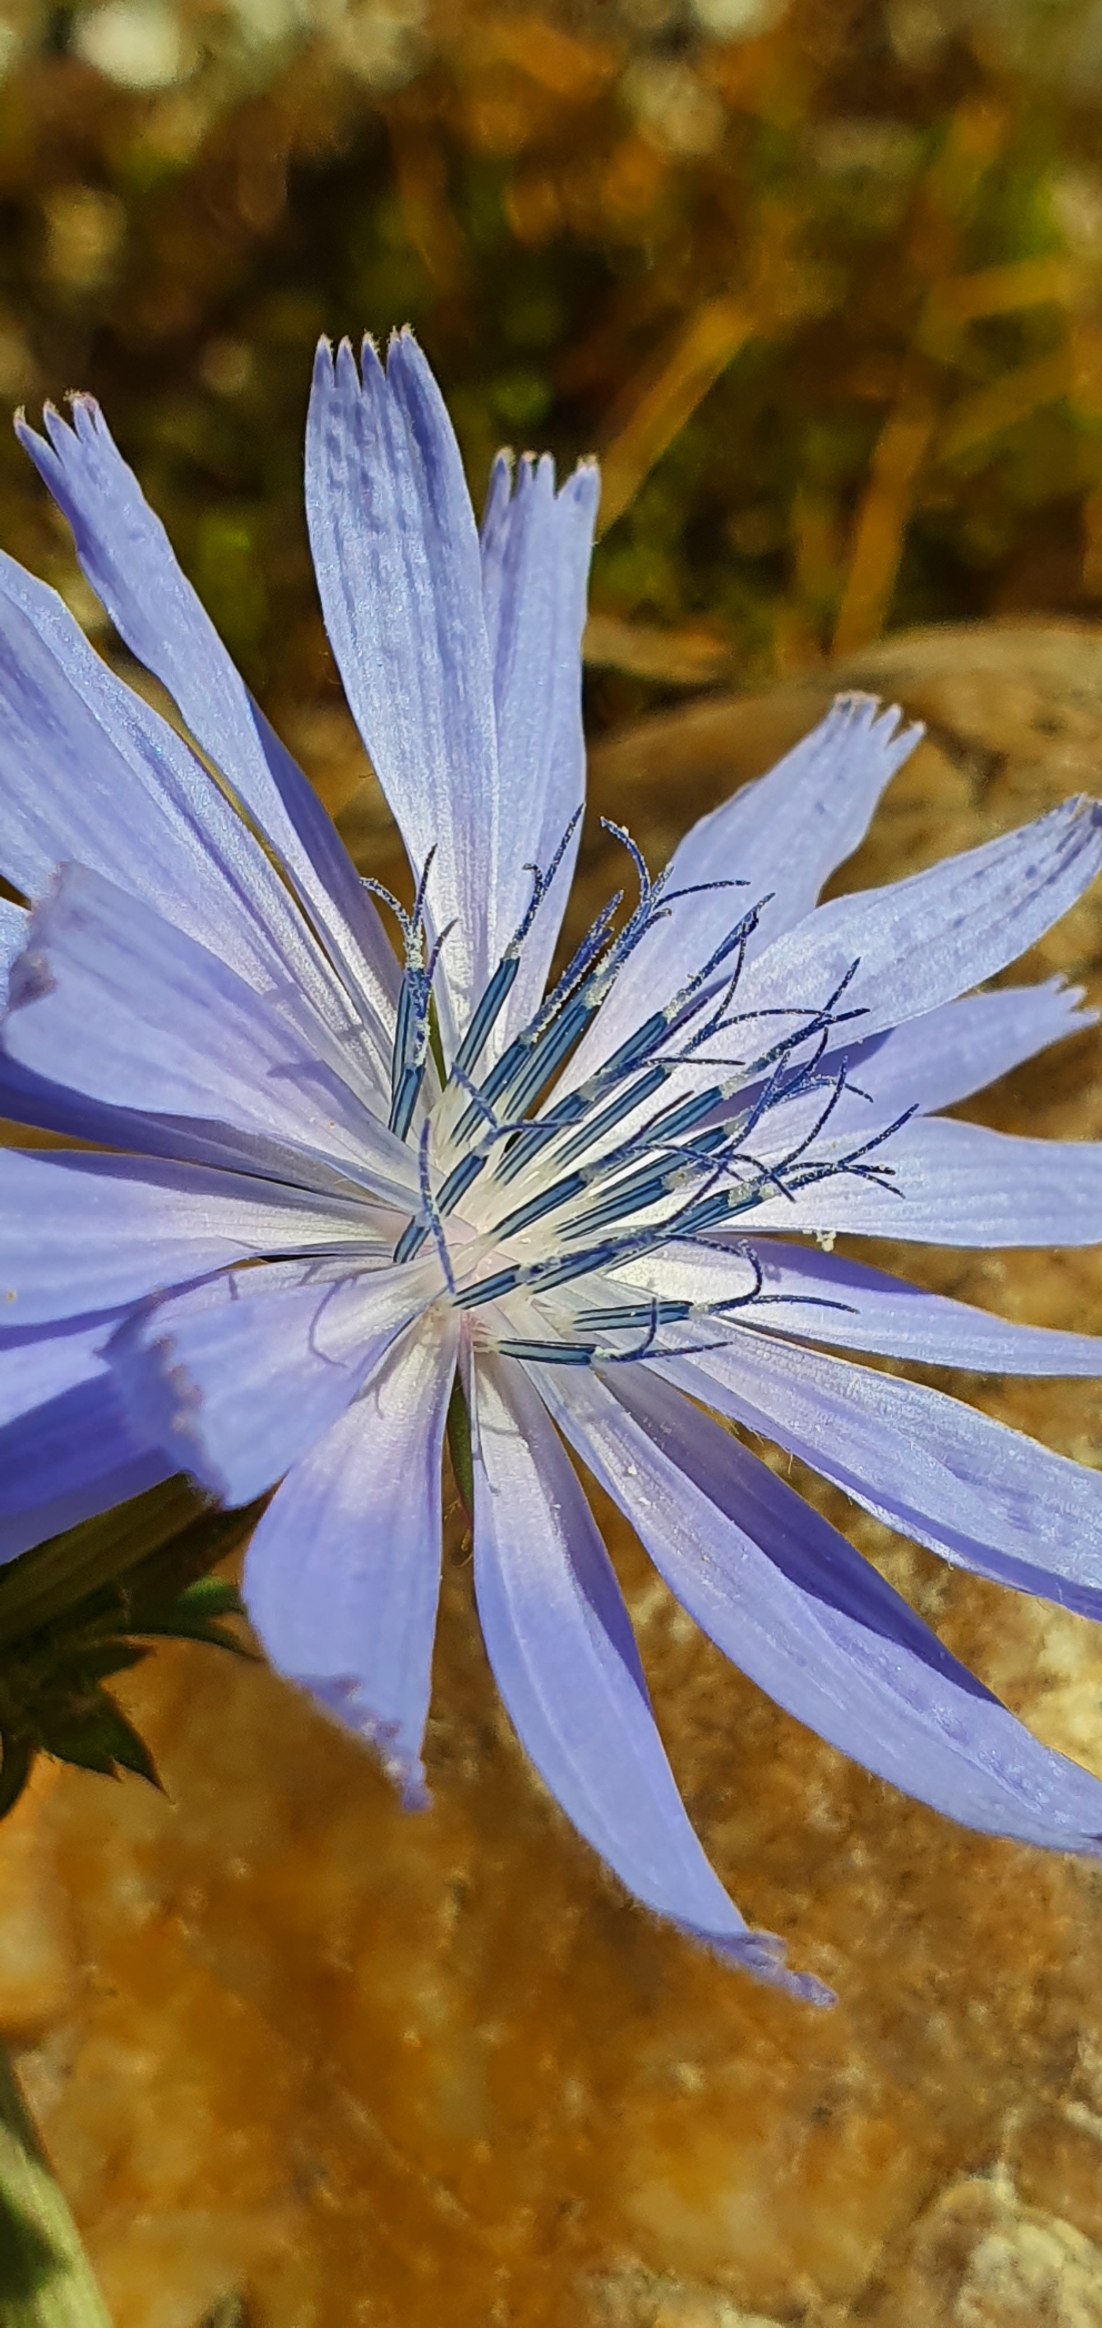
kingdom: Plantae
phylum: Tracheophyta
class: Magnoliopsida
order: Asterales
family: Asteraceae
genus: Cichorium
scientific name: Cichorium intybus
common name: Cikorie
